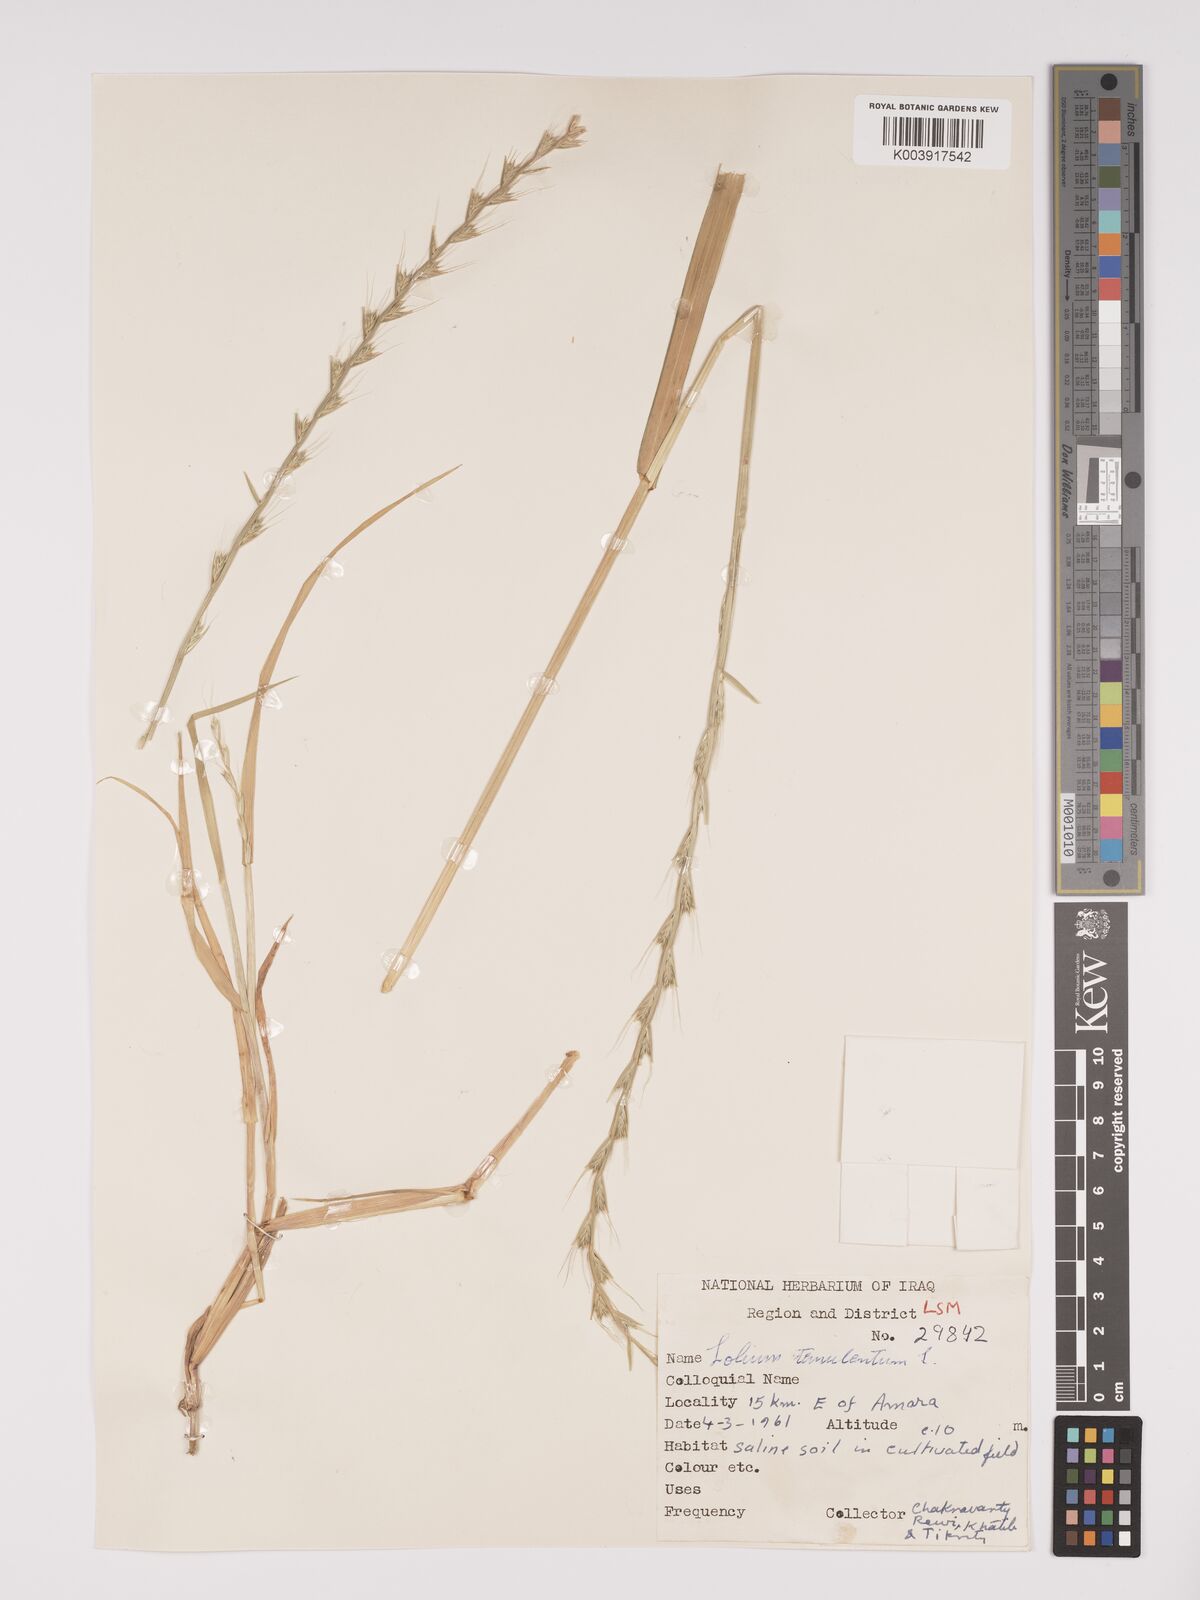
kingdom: Plantae
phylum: Tracheophyta
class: Liliopsida
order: Poales
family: Poaceae
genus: Lolium
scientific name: Lolium temulentum
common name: Darnel
